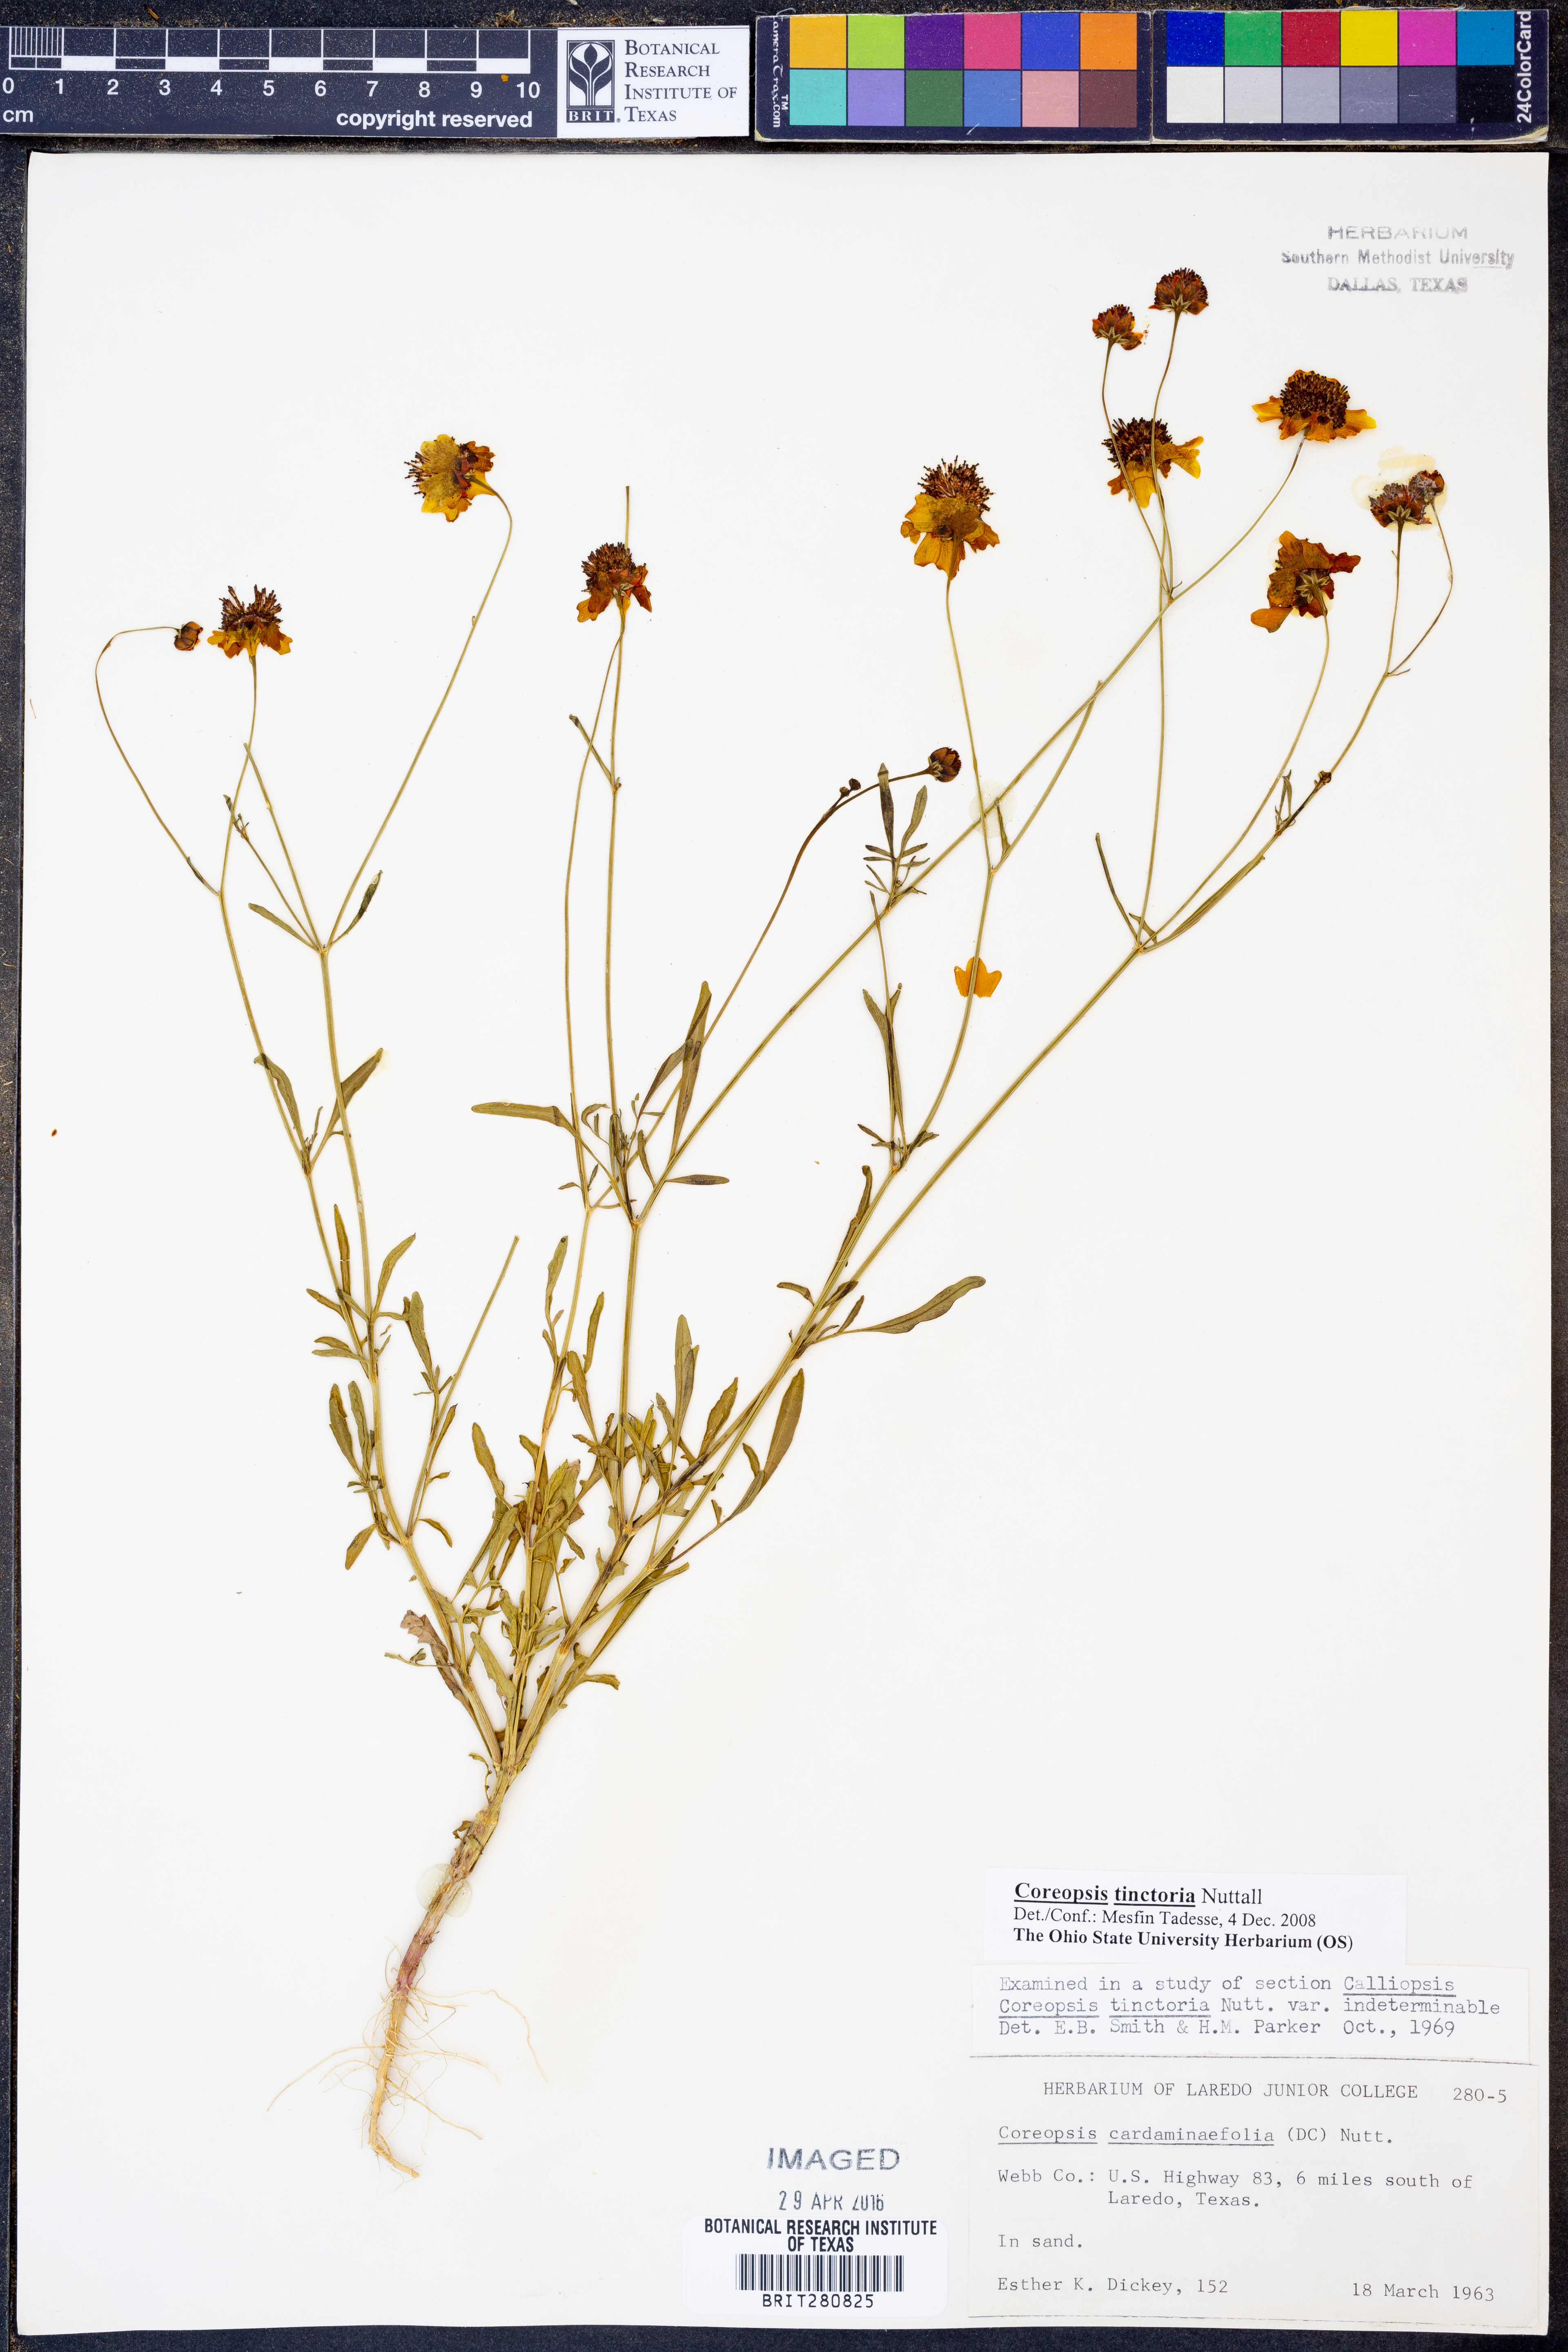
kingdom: Plantae
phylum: Tracheophyta
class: Magnoliopsida
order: Asterales
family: Asteraceae
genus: Coreopsis
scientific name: Coreopsis tinctoria
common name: Garden tickseed
